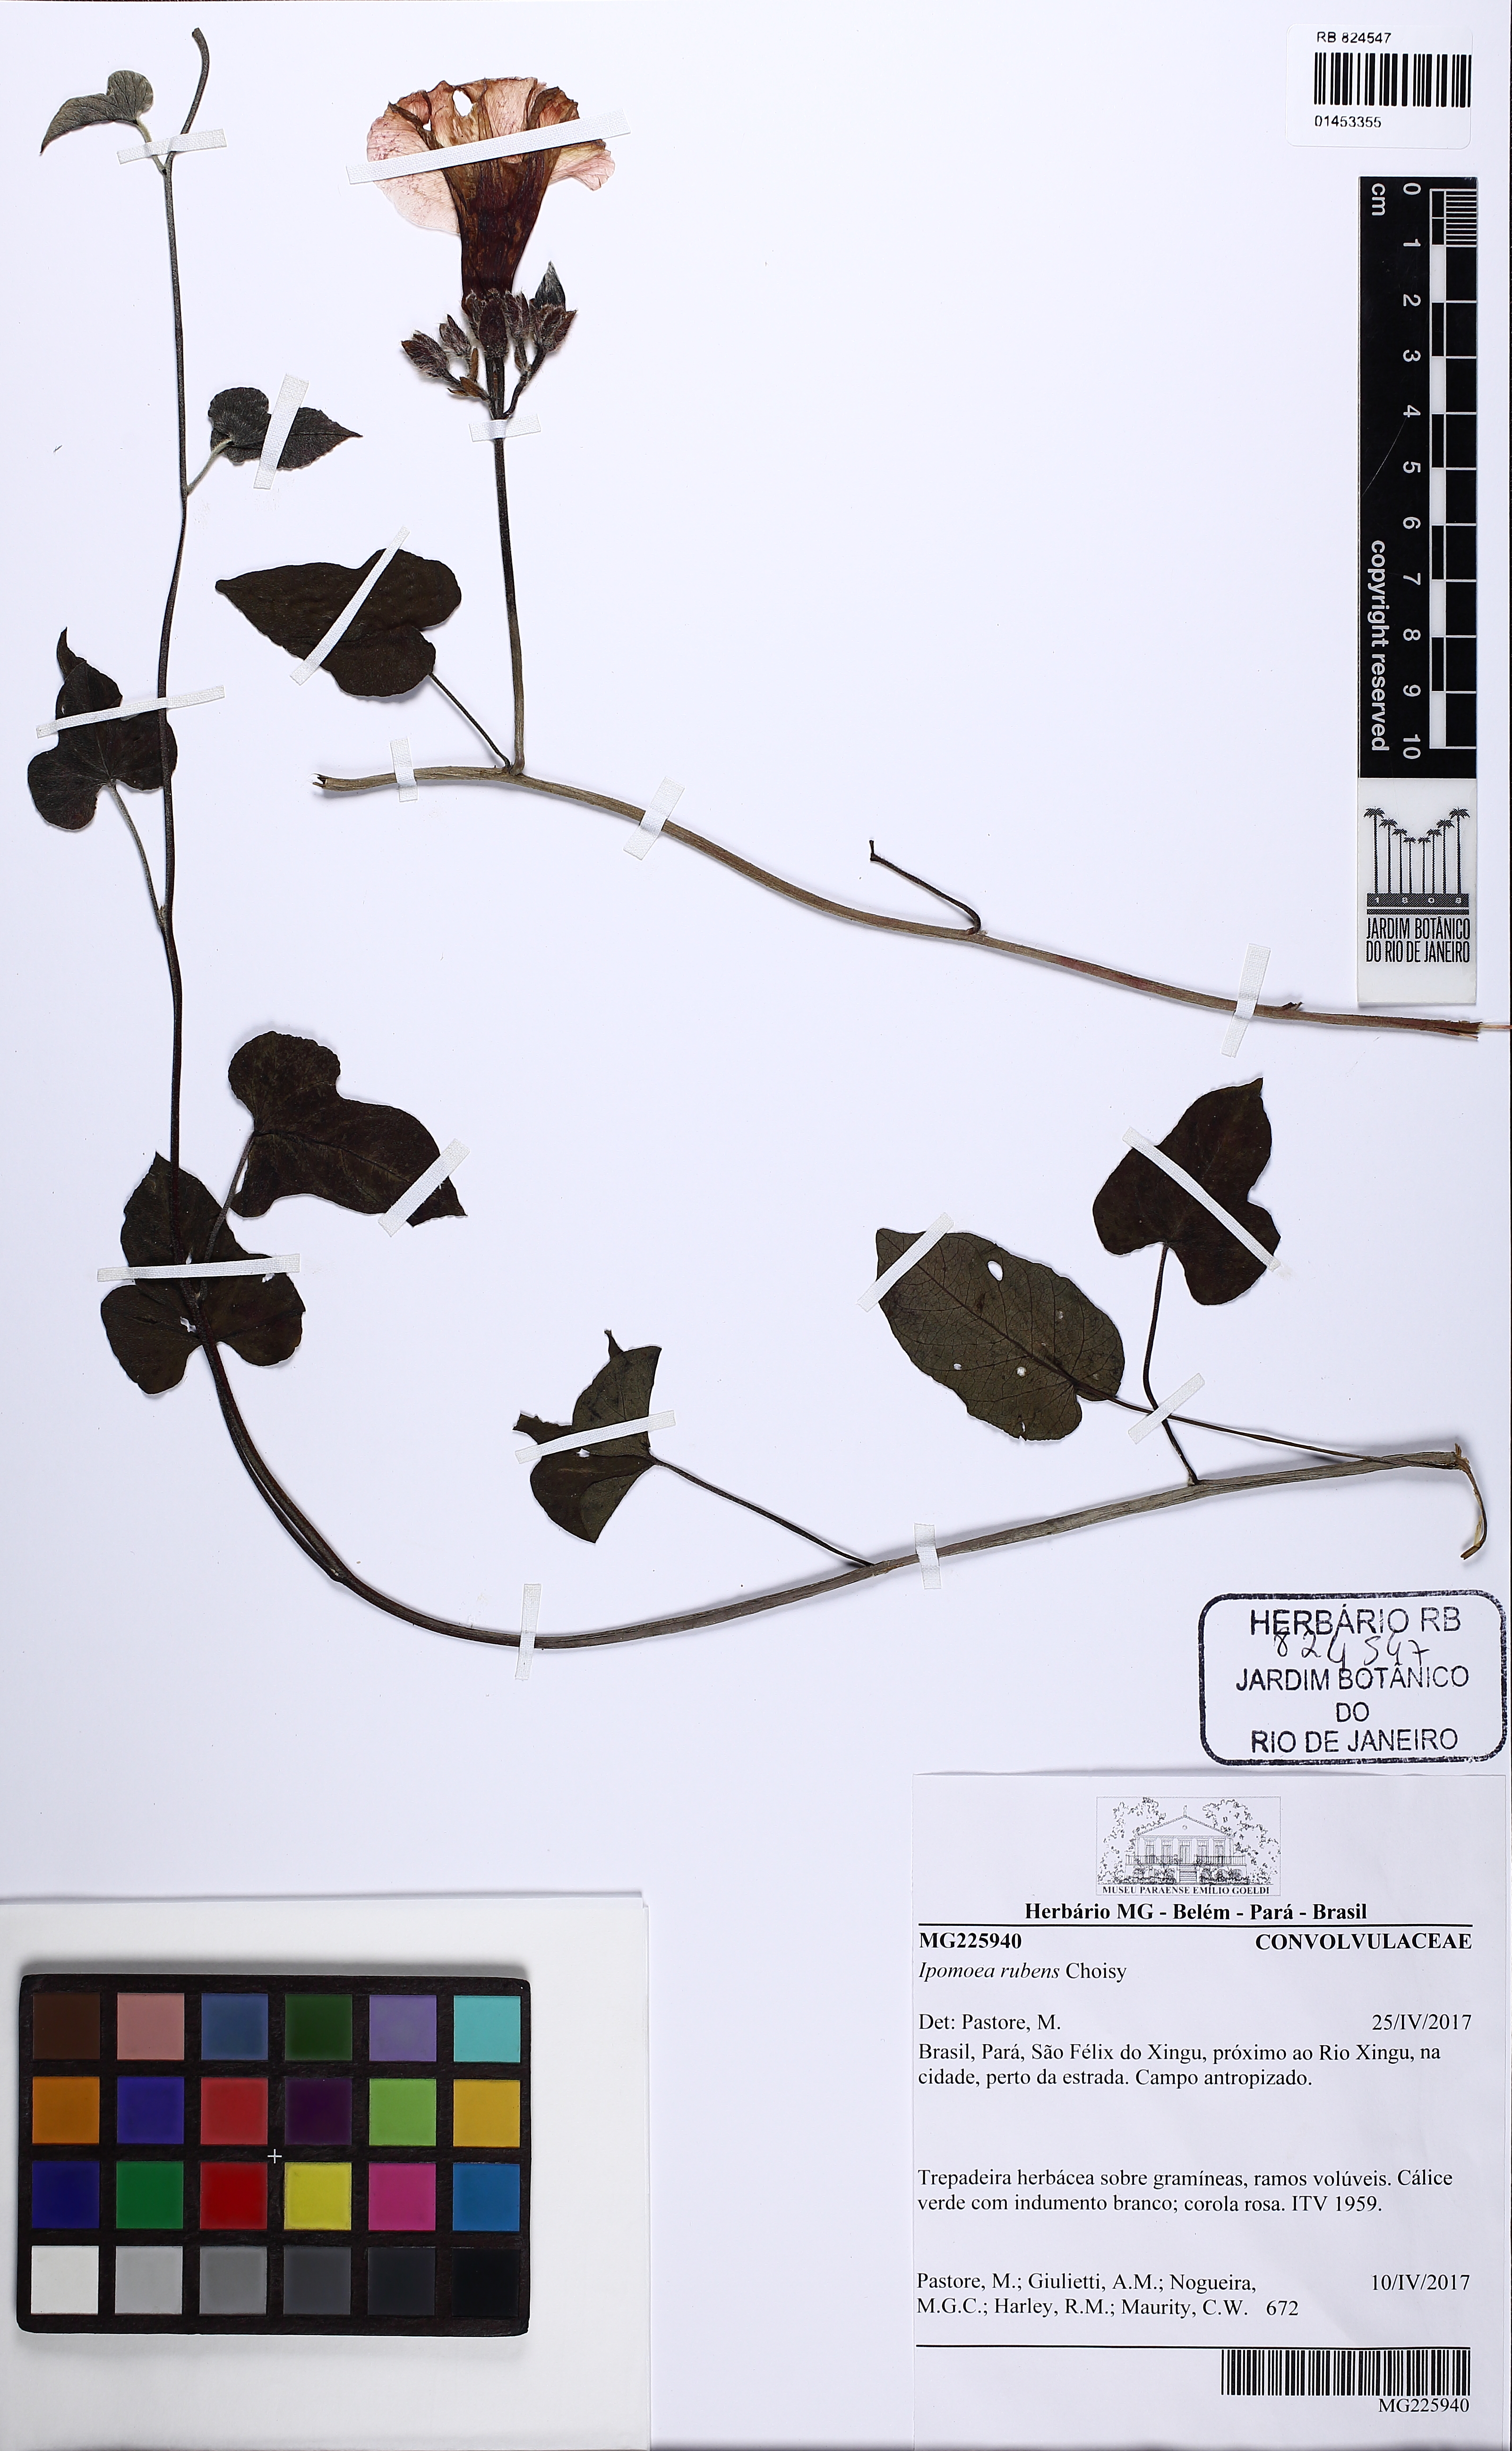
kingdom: Plantae
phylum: Tracheophyta
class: Magnoliopsida
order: Solanales
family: Convolvulaceae
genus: Ipomoea
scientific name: Ipomoea rubens
